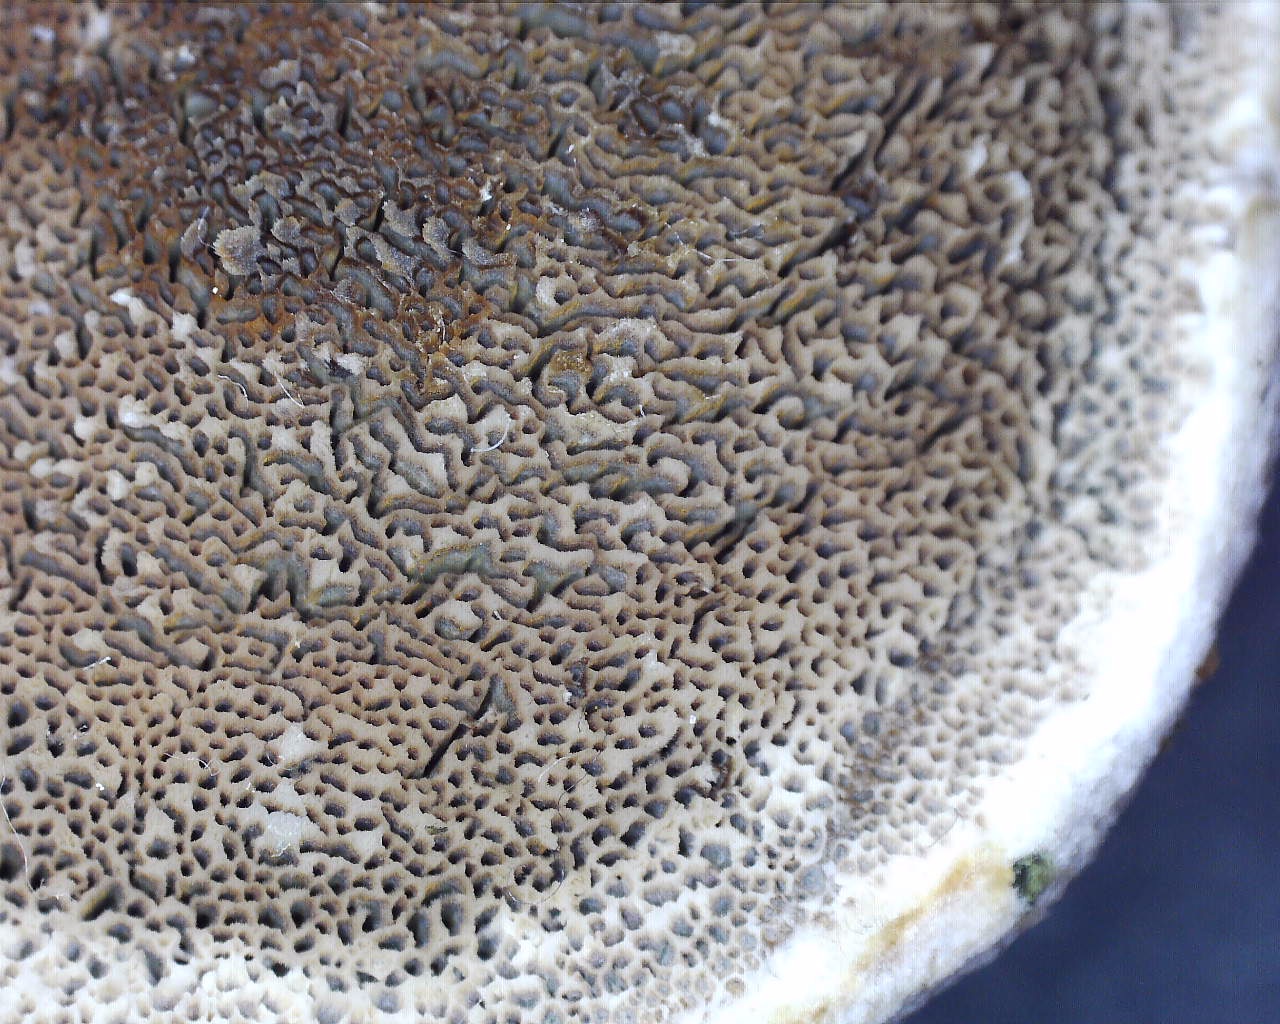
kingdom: Fungi
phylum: Basidiomycota
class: Agaricomycetes
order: Hymenochaetales
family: Hymenochaetaceae
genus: Inocutis
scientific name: Inocutis rheades
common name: ræve-spejlporesvamp
